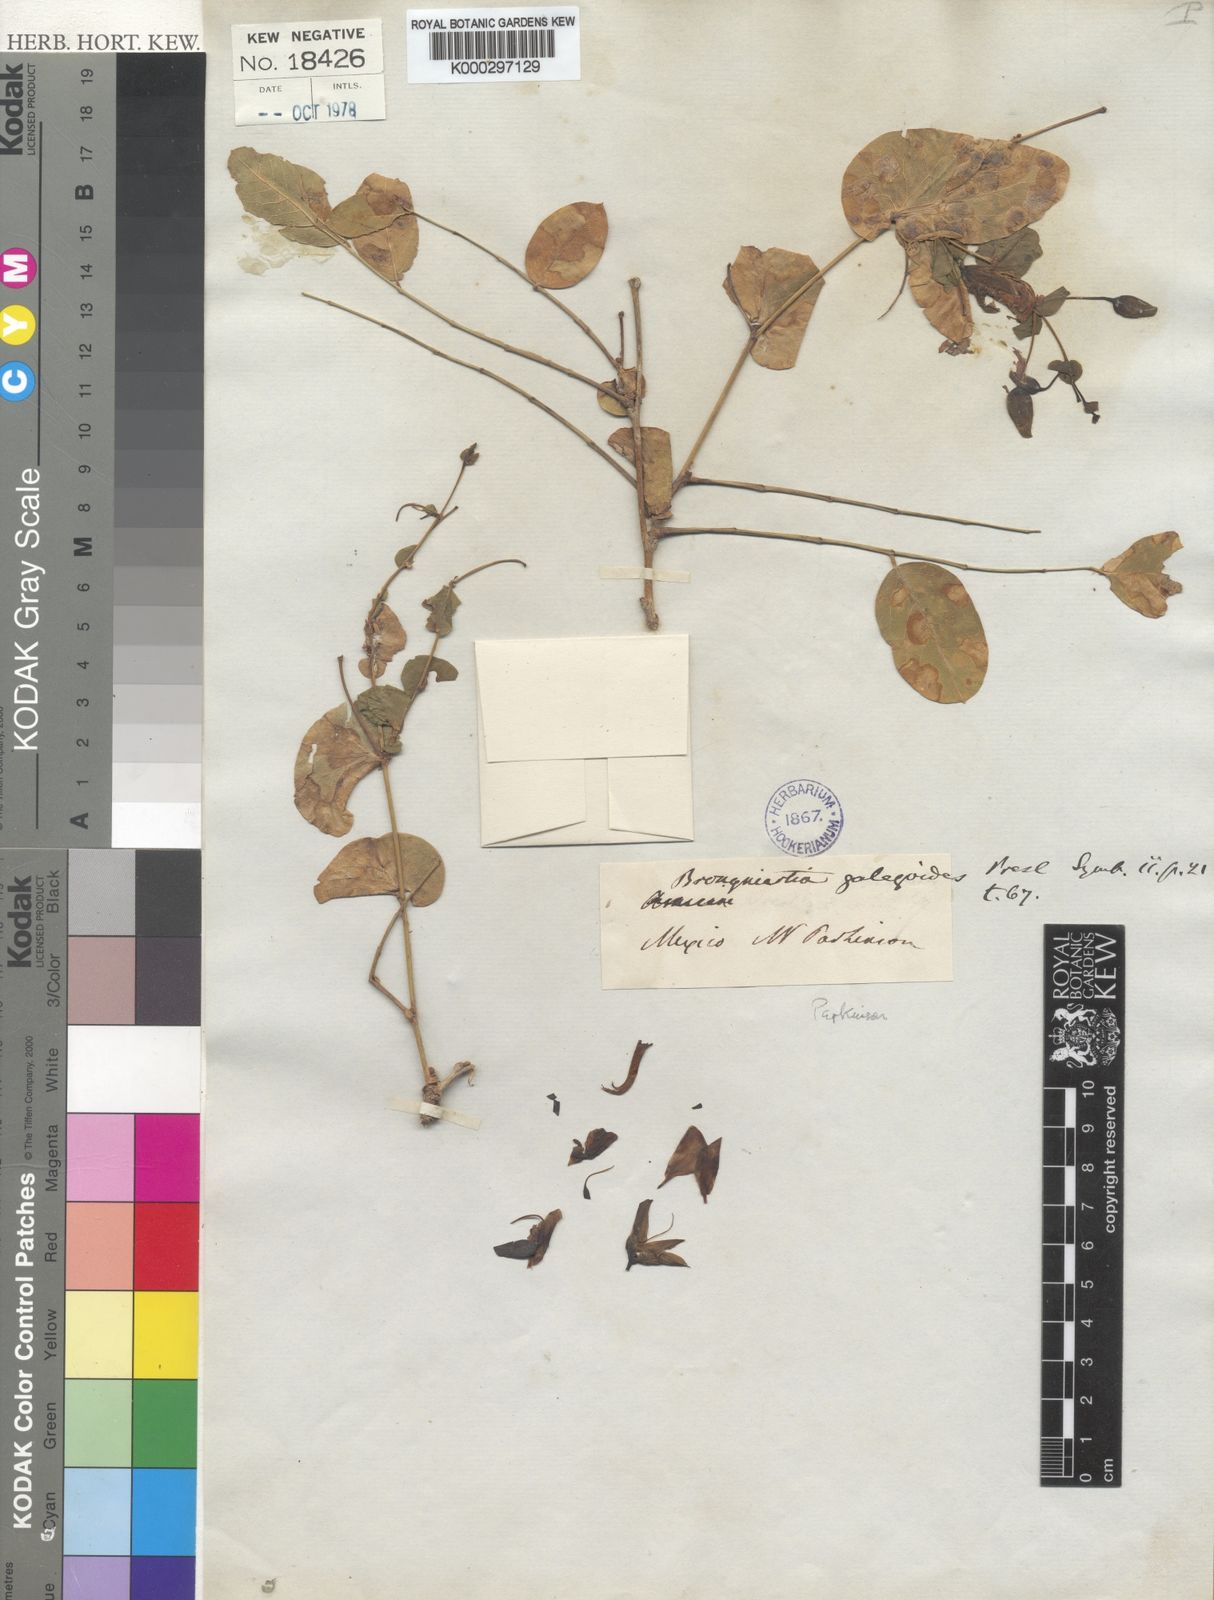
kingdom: Plantae
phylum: Tracheophyta
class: Magnoliopsida
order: Fabales
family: Fabaceae
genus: Brongniartia
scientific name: Brongniartia
